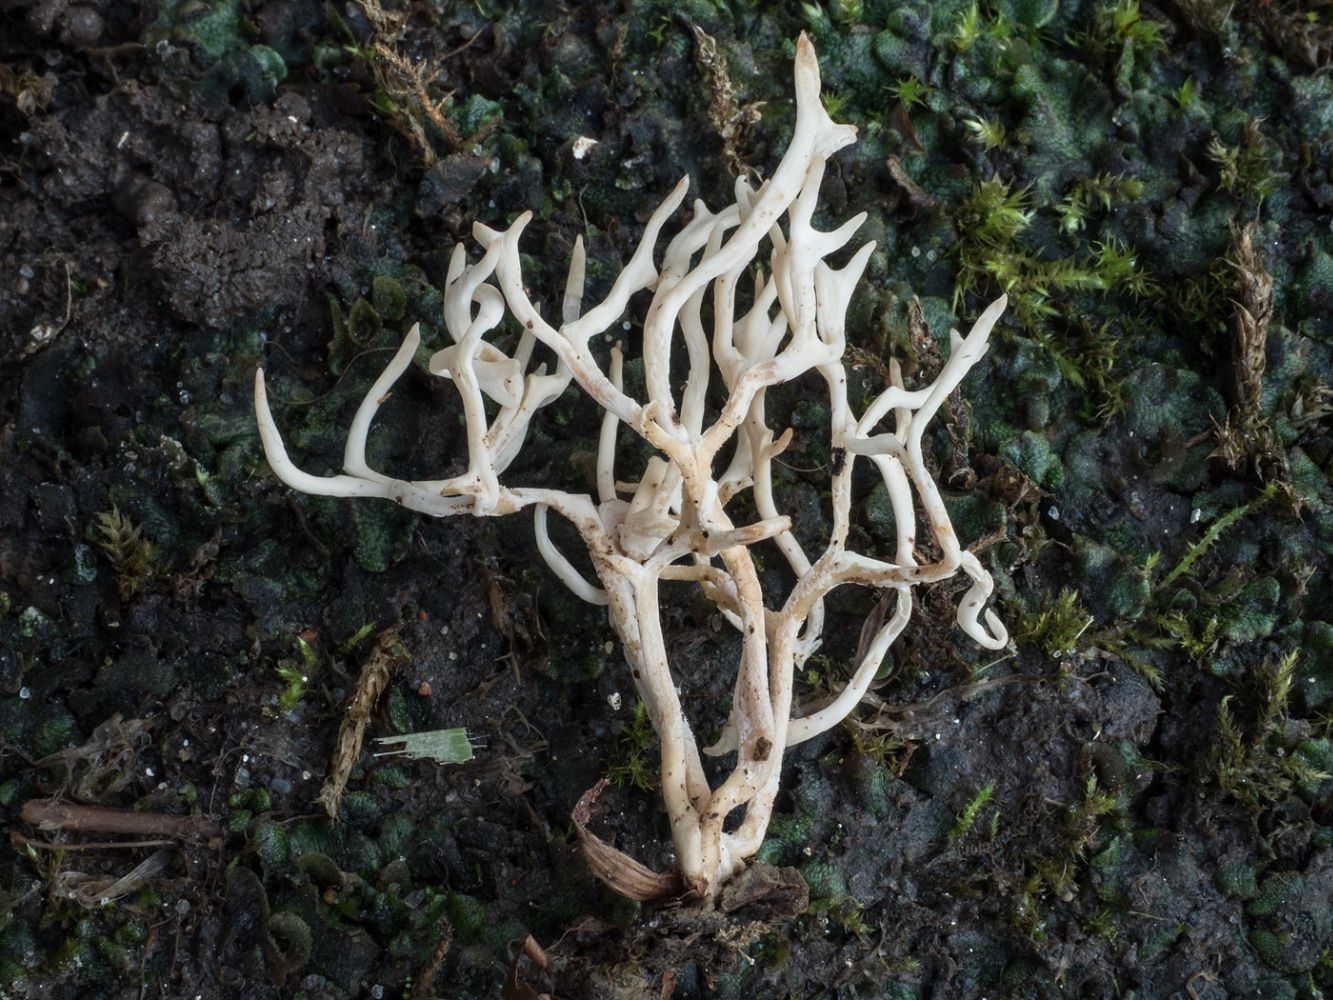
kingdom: Fungi
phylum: Basidiomycota
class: Agaricomycetes
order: Agaricales
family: Clavariaceae
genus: Ramariopsis
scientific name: Ramariopsis tenuicula
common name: spinkel køllesvamp
